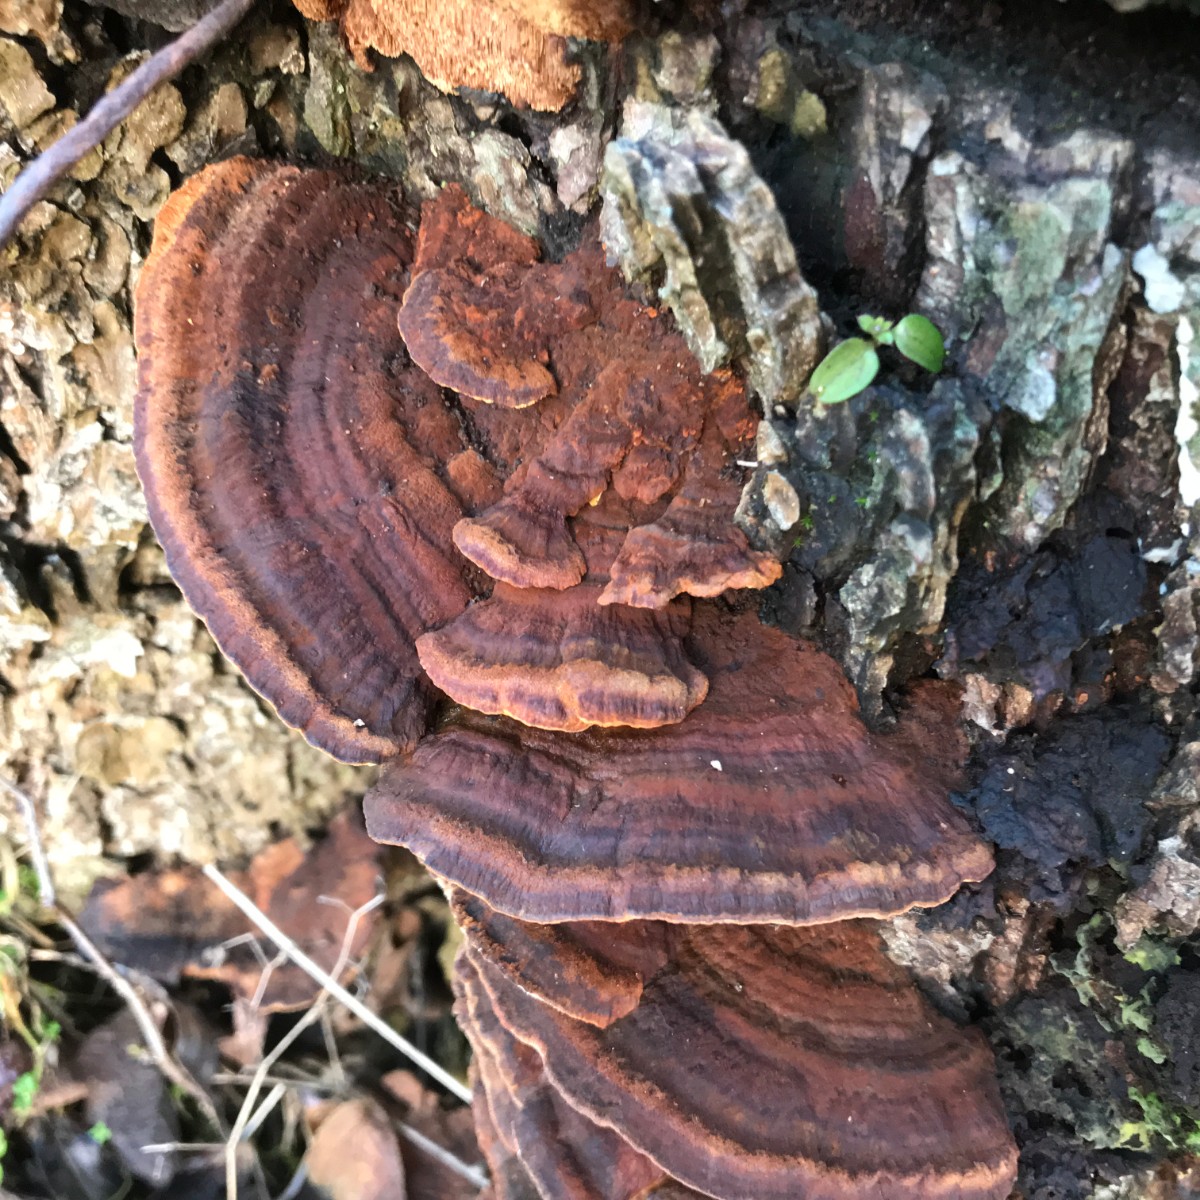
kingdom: Fungi
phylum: Basidiomycota
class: Agaricomycetes
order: Polyporales
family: Polyporaceae
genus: Daedaleopsis
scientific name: Daedaleopsis confragosa
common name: rødmende læderporesvamp
